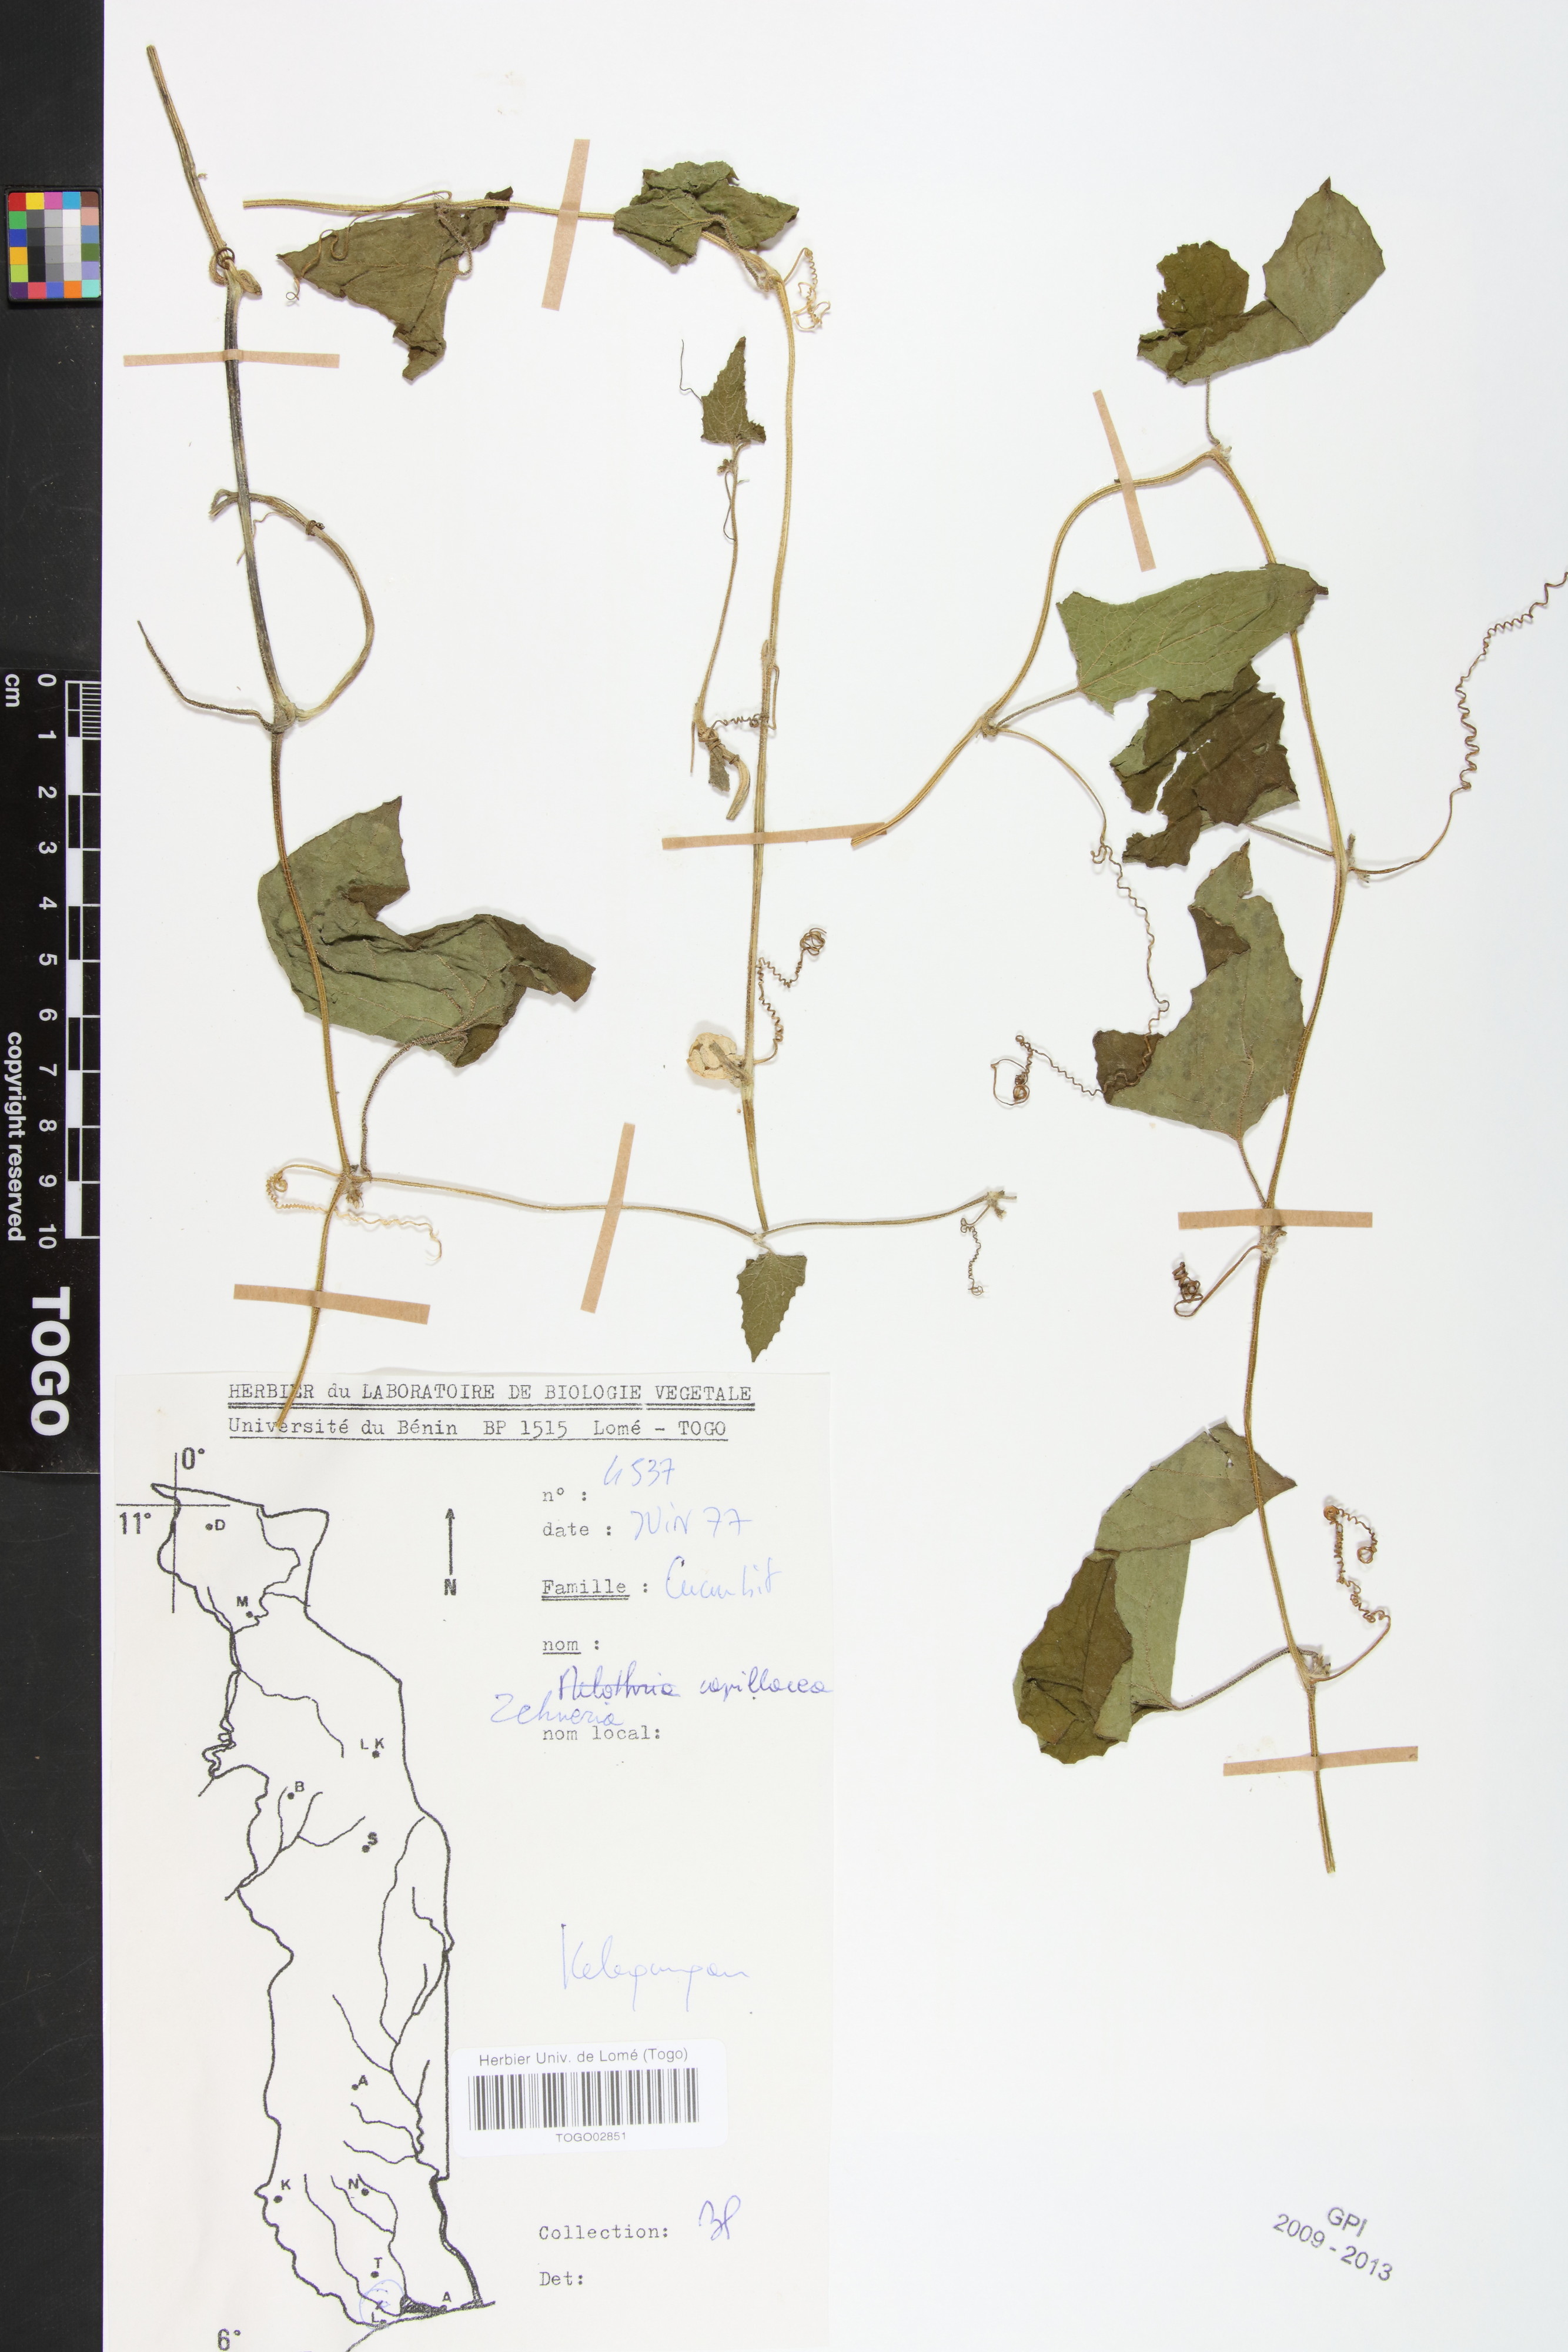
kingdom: Plantae
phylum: Tracheophyta
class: Magnoliopsida
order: Cucurbitales
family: Cucurbitaceae
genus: Zehneria
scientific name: Zehneria capillacea
